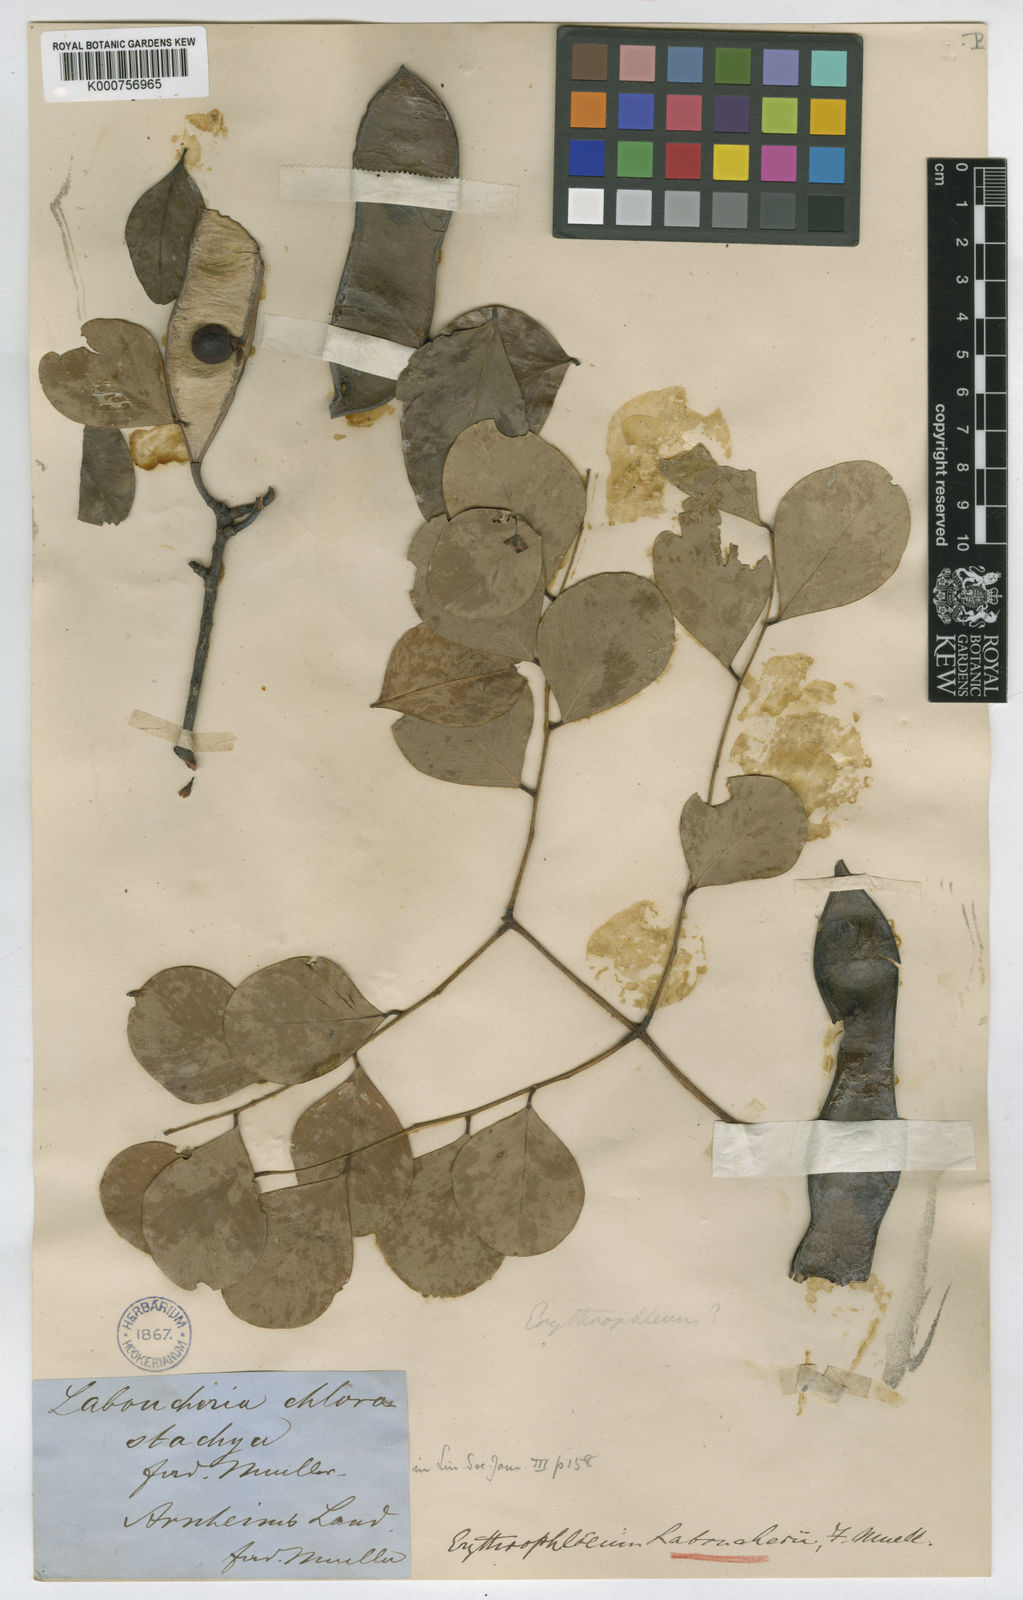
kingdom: Plantae
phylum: Tracheophyta
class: Magnoliopsida
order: Fabales
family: Fabaceae
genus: Erythrophleum
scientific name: Erythrophleum chlorostachys
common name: Black-bean
